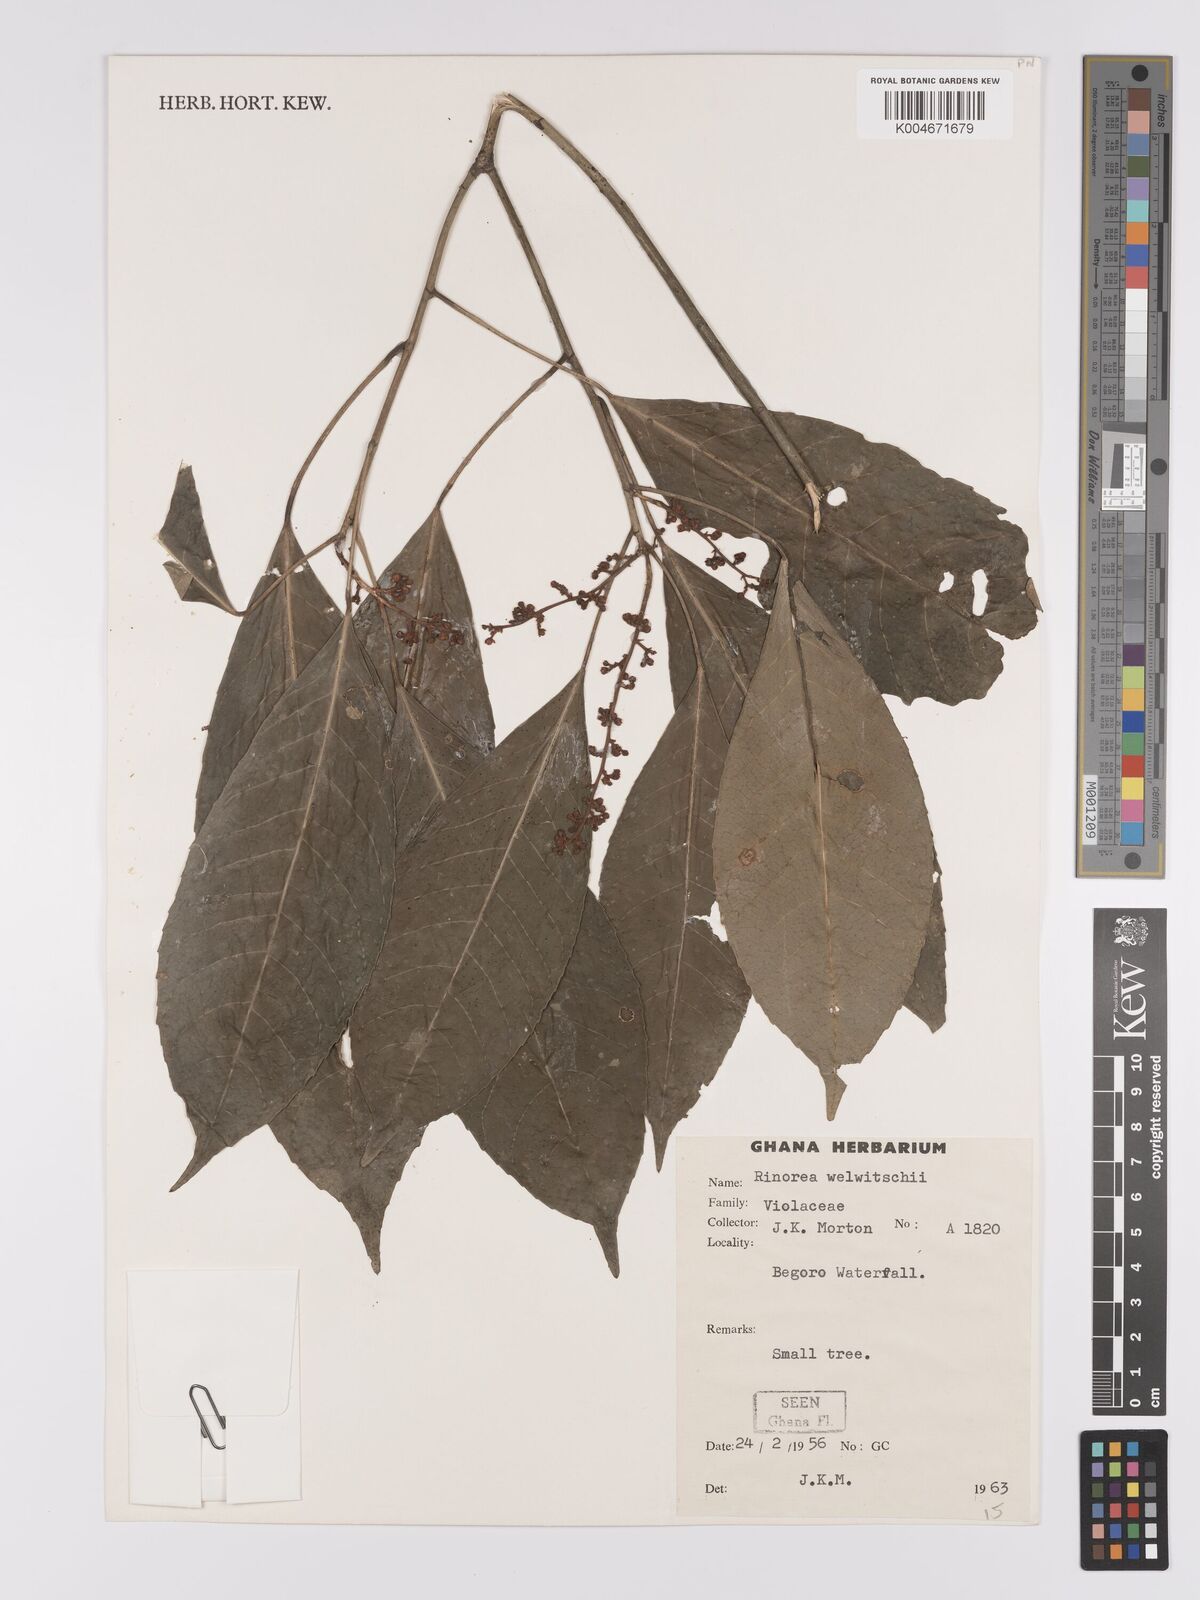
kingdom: Plantae
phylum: Tracheophyta
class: Magnoliopsida
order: Malpighiales
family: Violaceae
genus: Rinorea
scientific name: Rinorea welwitschii
